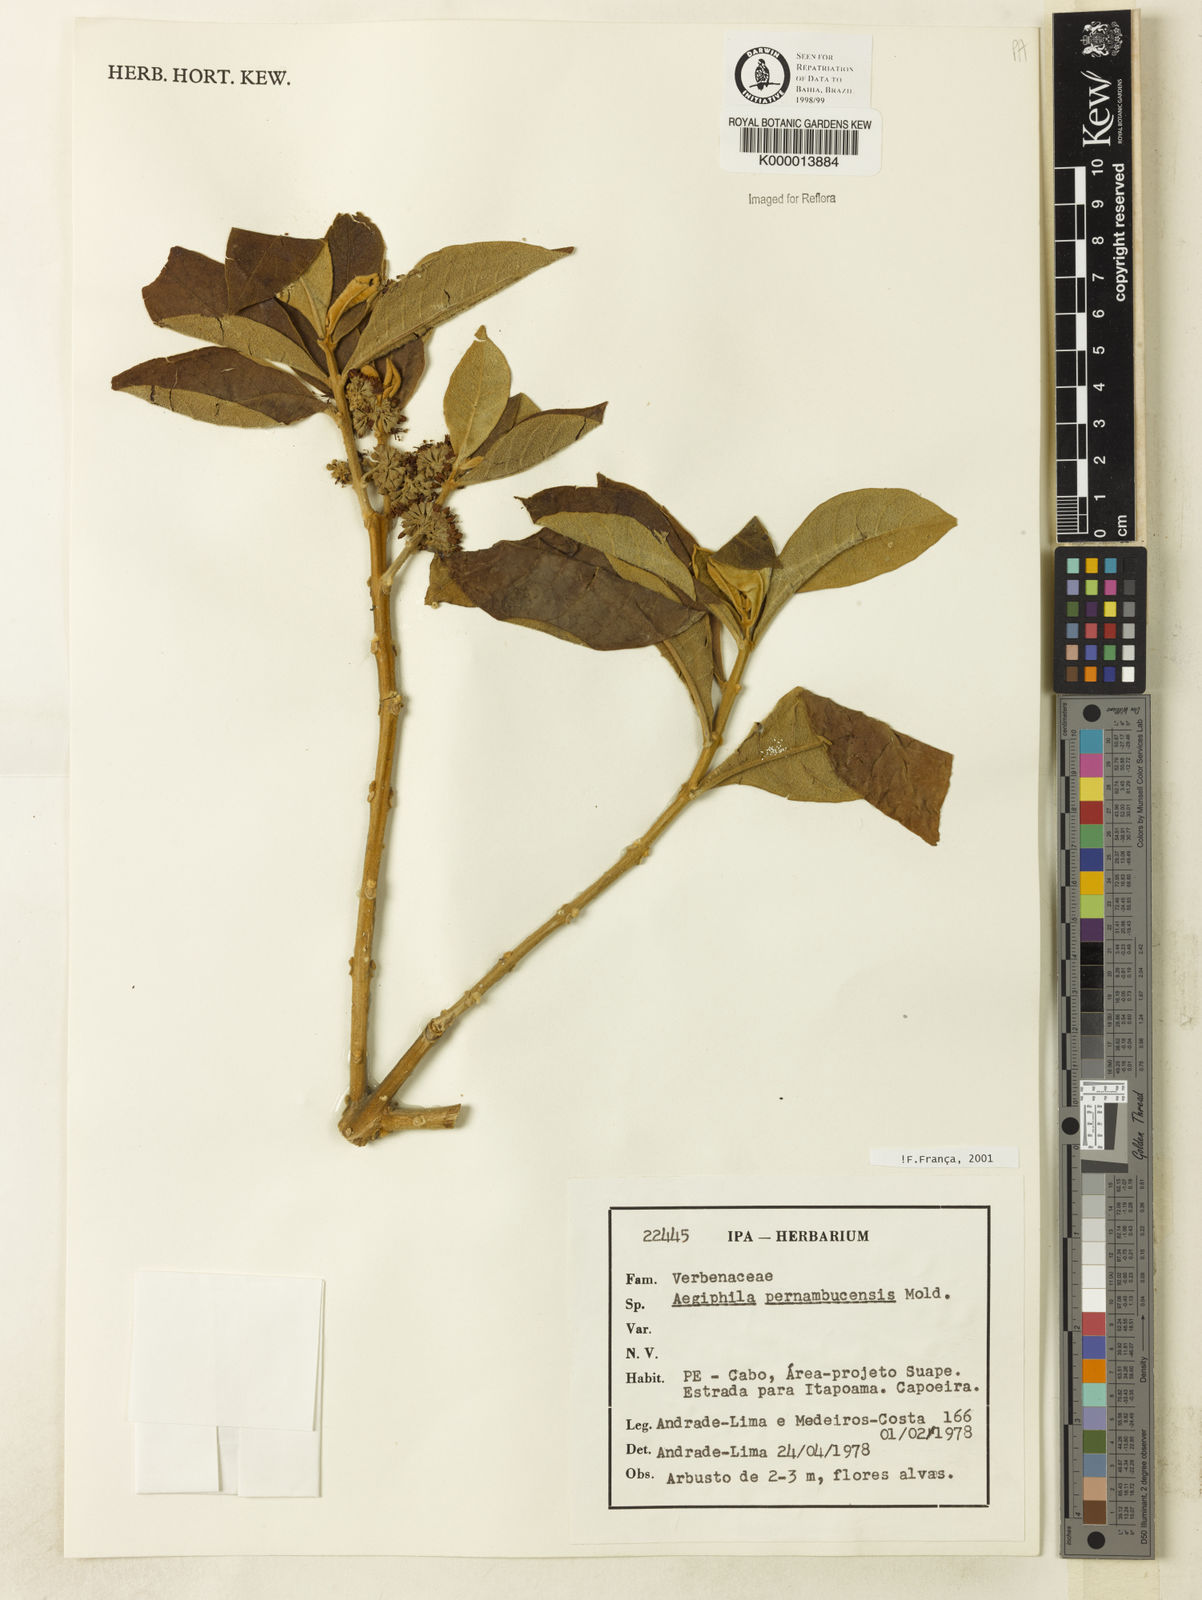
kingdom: Plantae
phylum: Tracheophyta
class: Magnoliopsida
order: Lamiales
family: Lamiaceae
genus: Aegiphila
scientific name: Aegiphila pernambucensis
